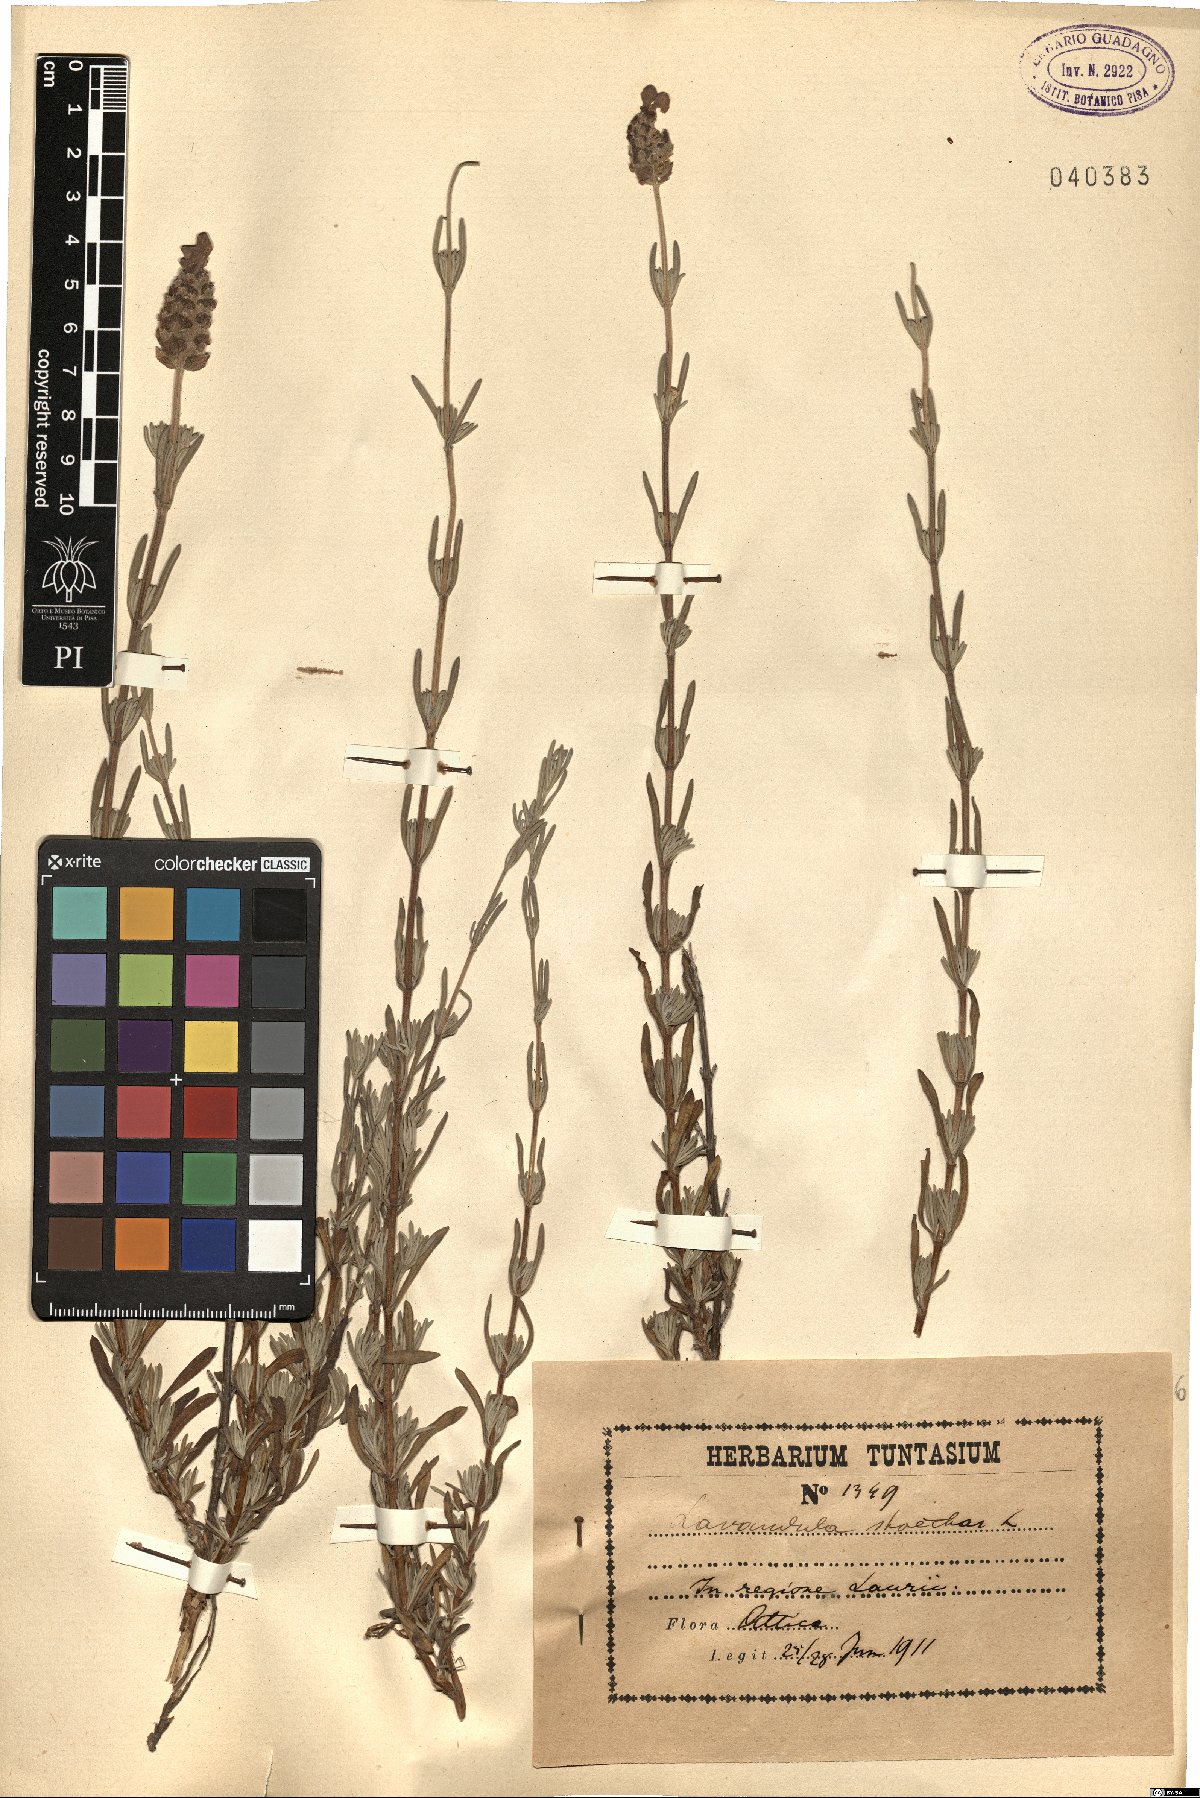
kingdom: Plantae
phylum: Tracheophyta
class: Magnoliopsida
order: Lamiales
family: Lamiaceae
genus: Lavandula
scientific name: Lavandula stoechas
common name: French lavender
